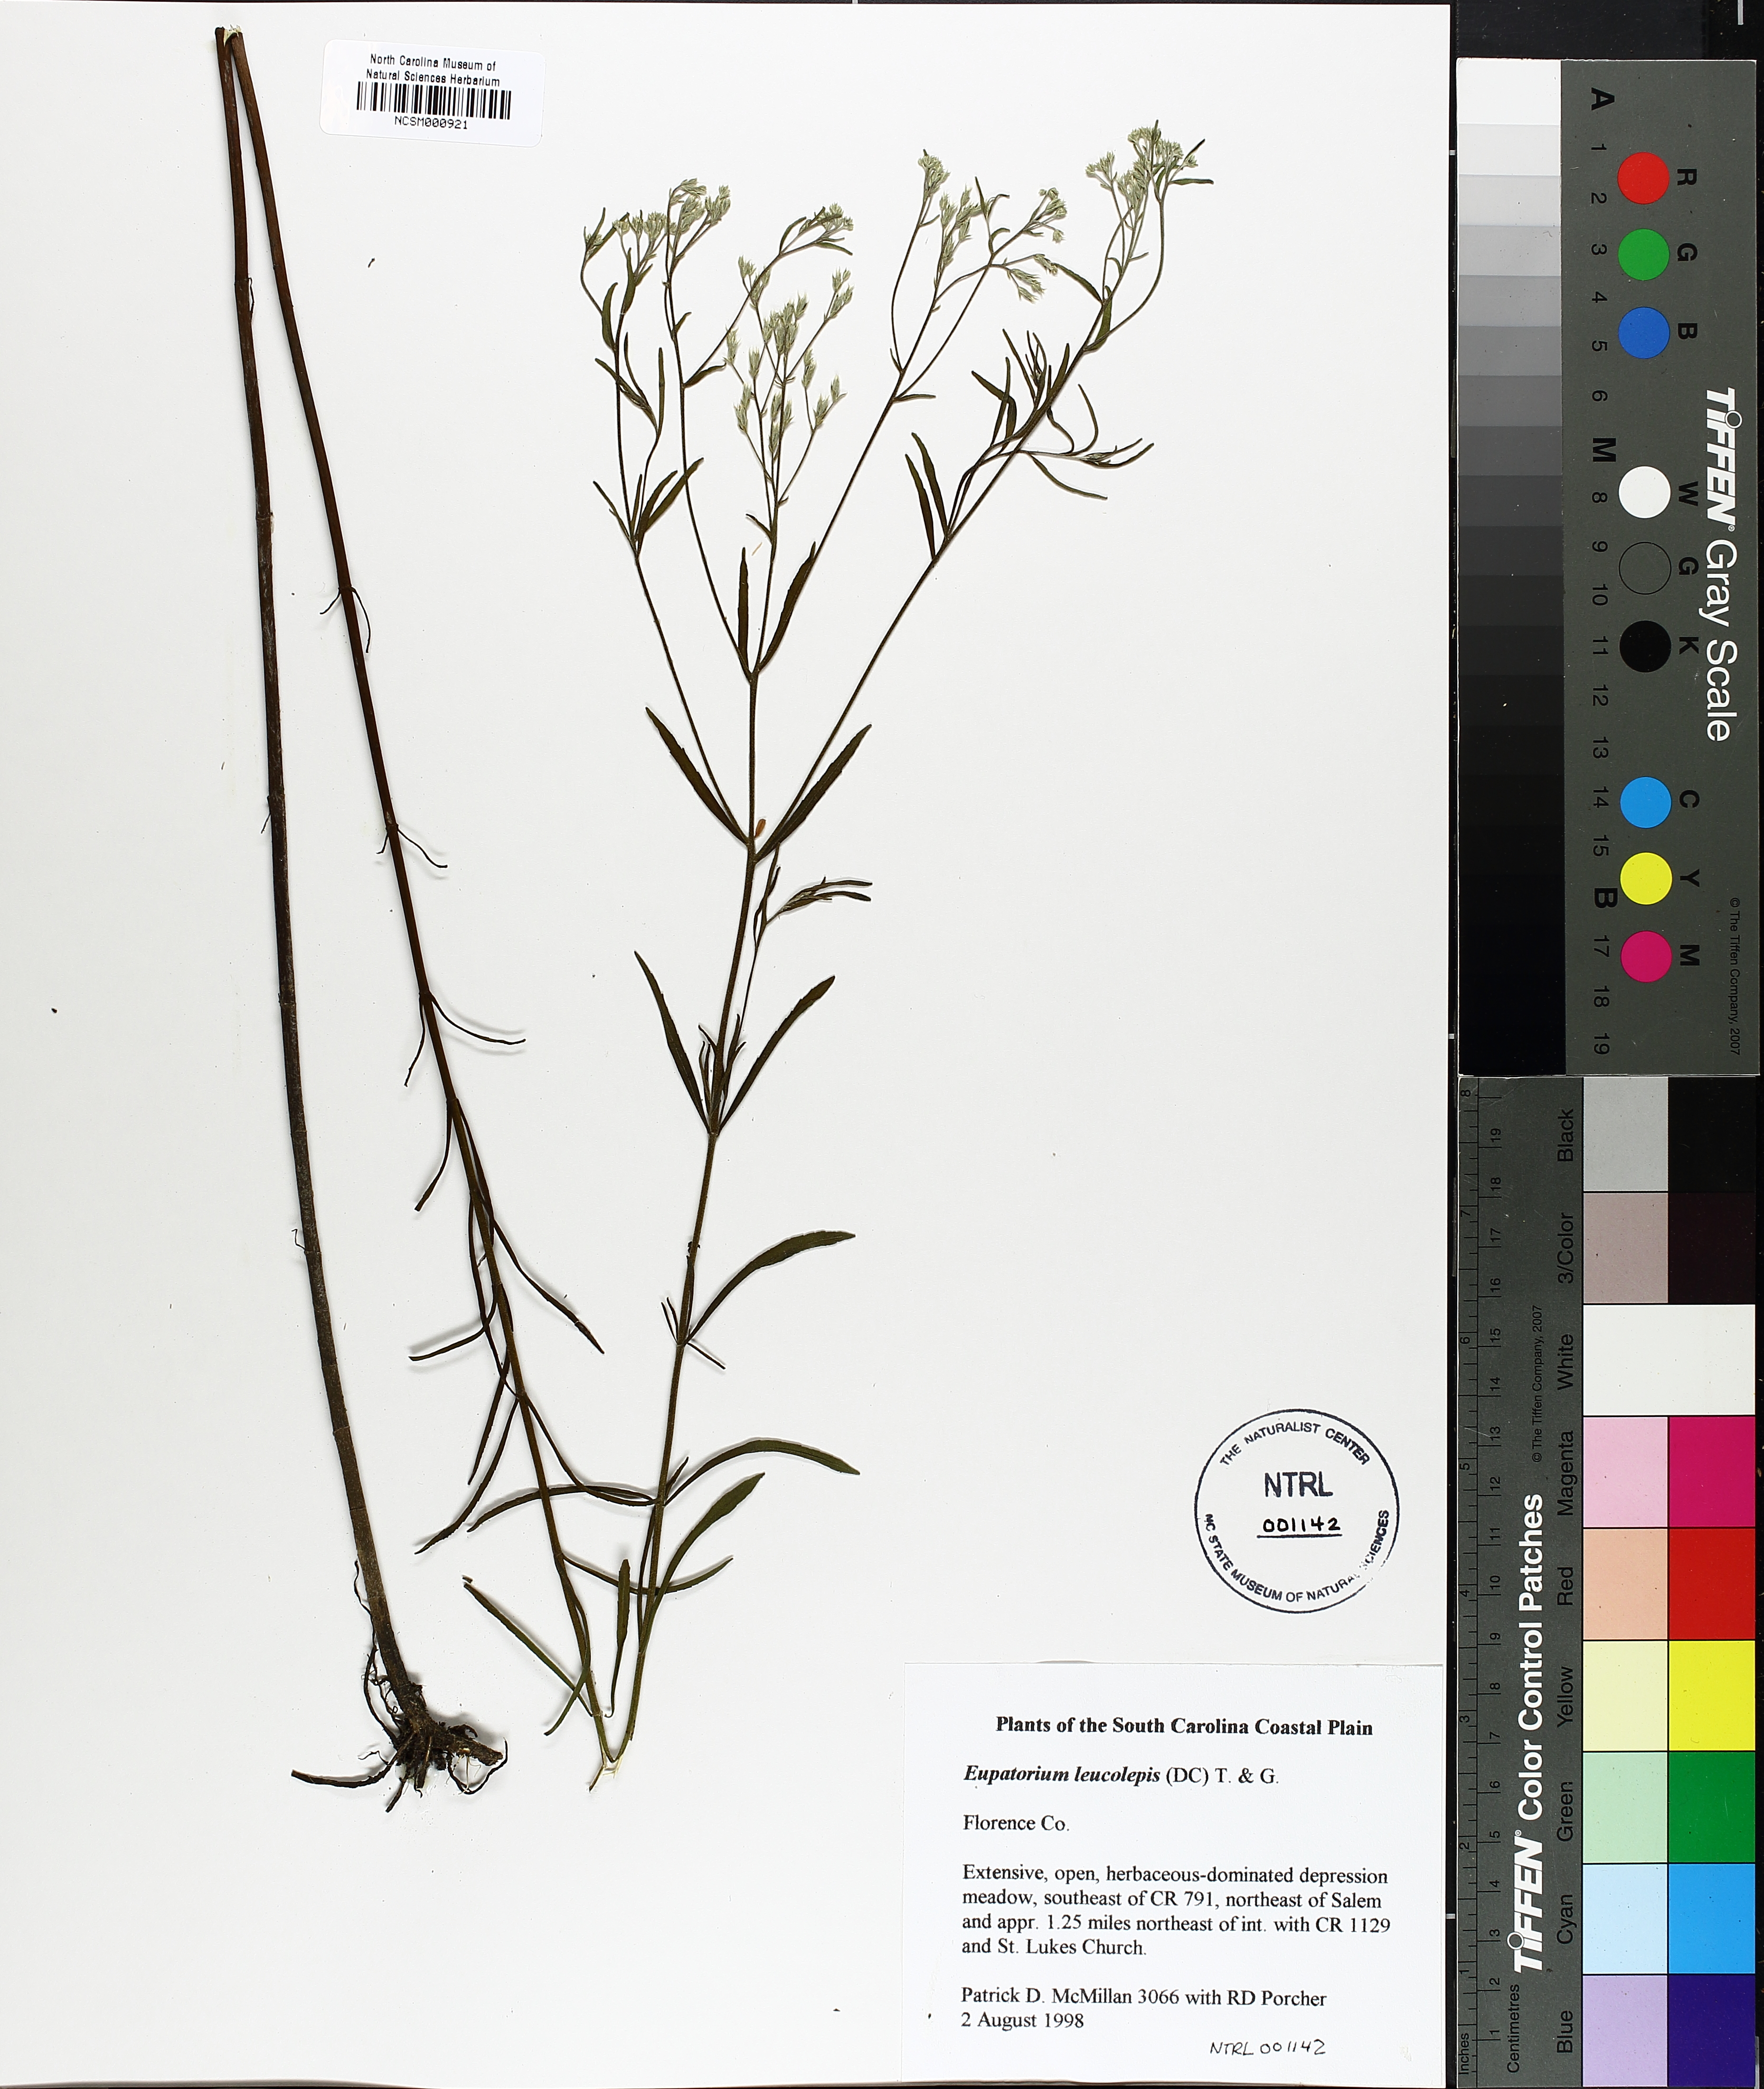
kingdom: Plantae
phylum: Tracheophyta
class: Magnoliopsida
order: Asterales
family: Asteraceae
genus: Eupatorium
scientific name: Eupatorium leucolepis
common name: Justiceweed
